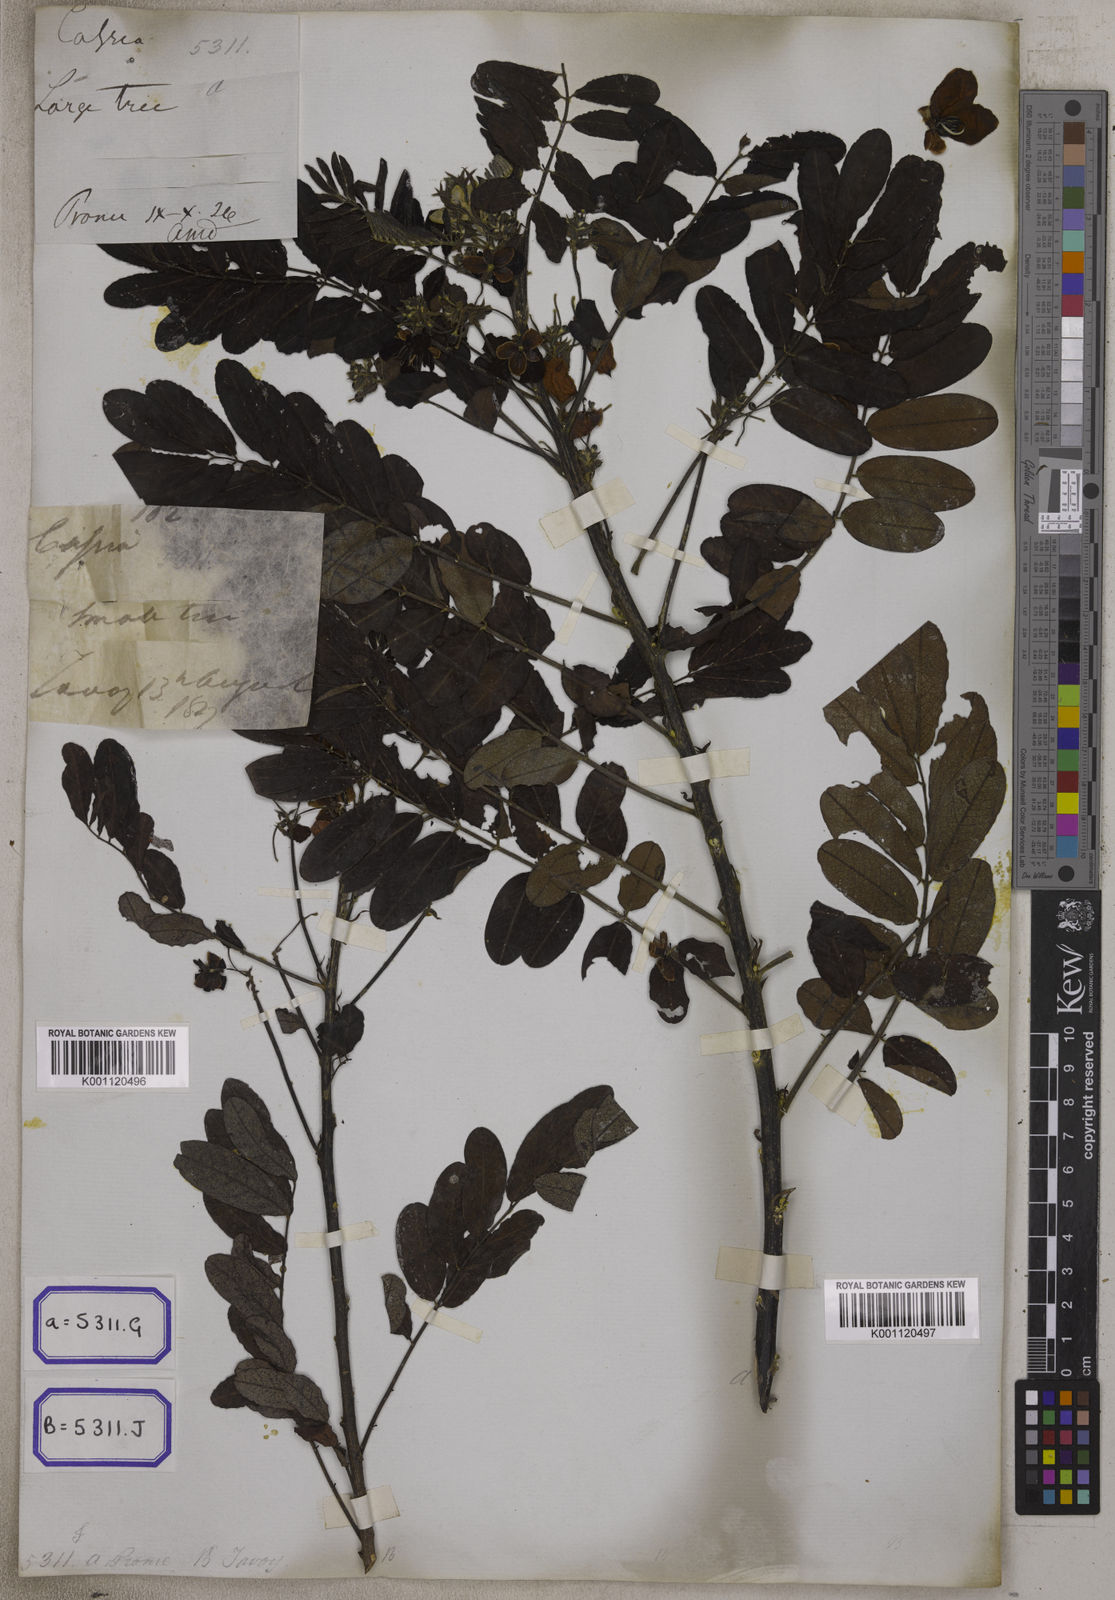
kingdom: Plantae
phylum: Tracheophyta
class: Magnoliopsida
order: Fabales
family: Fabaceae
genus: Senna
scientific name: Senna surattensis
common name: Glossy shower
